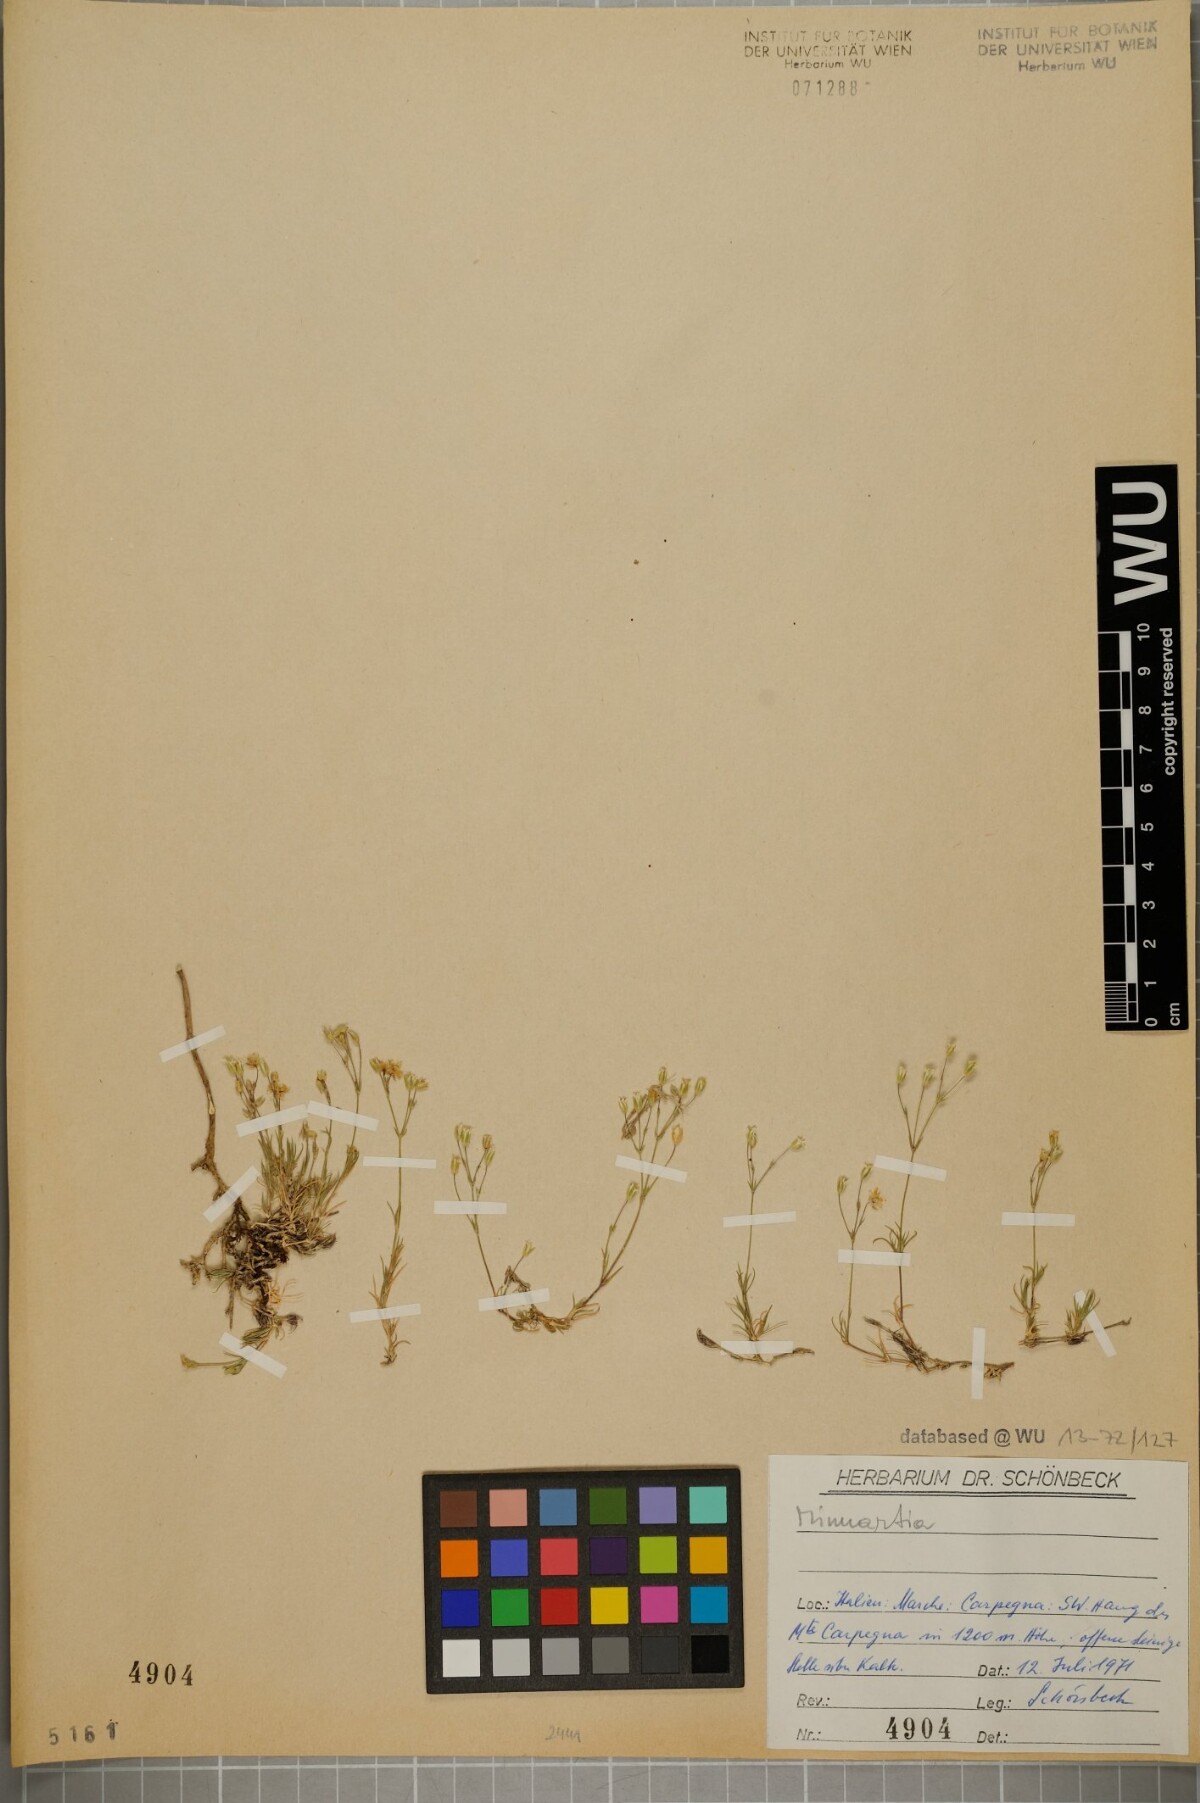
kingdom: Plantae
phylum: Tracheophyta
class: Magnoliopsida
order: Caryophyllales
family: Caryophyllaceae
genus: Sabulina
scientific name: Sabulina glaucina
